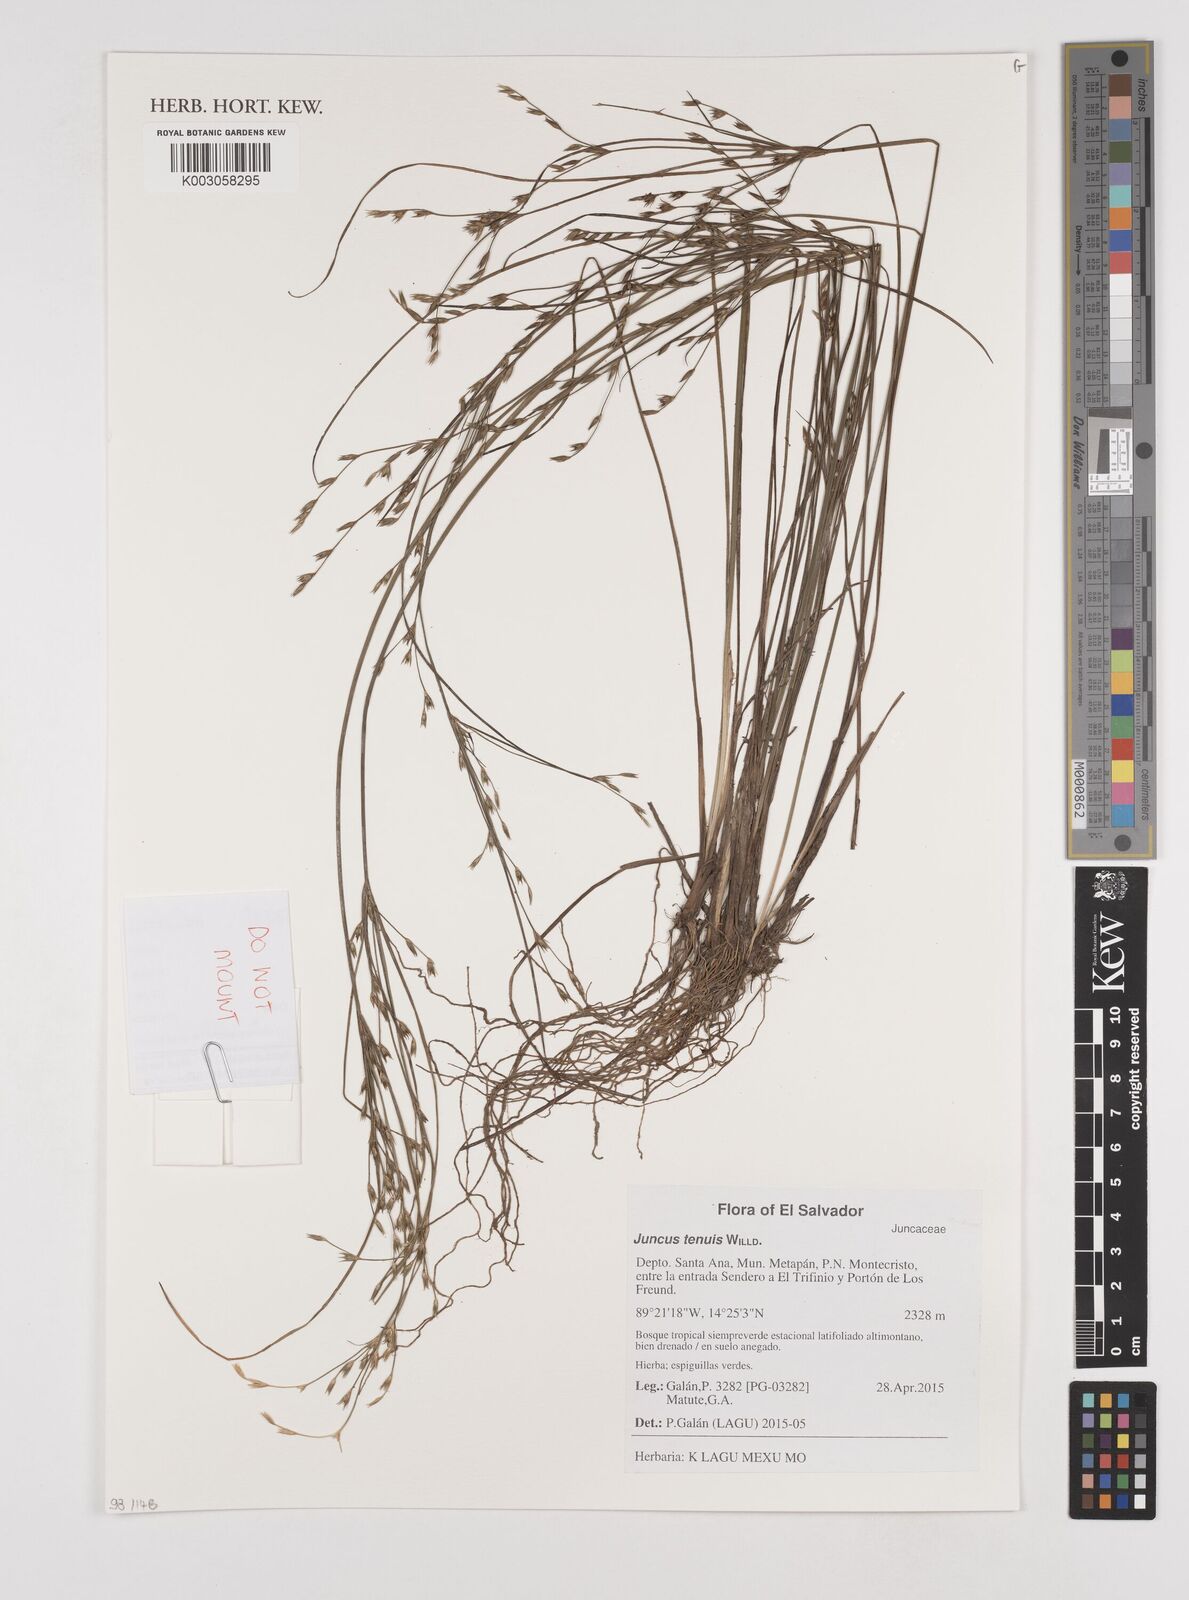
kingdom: Plantae
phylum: Tracheophyta
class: Liliopsida
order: Poales
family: Juncaceae
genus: Juncus
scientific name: Juncus tenuis
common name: Slender rush
